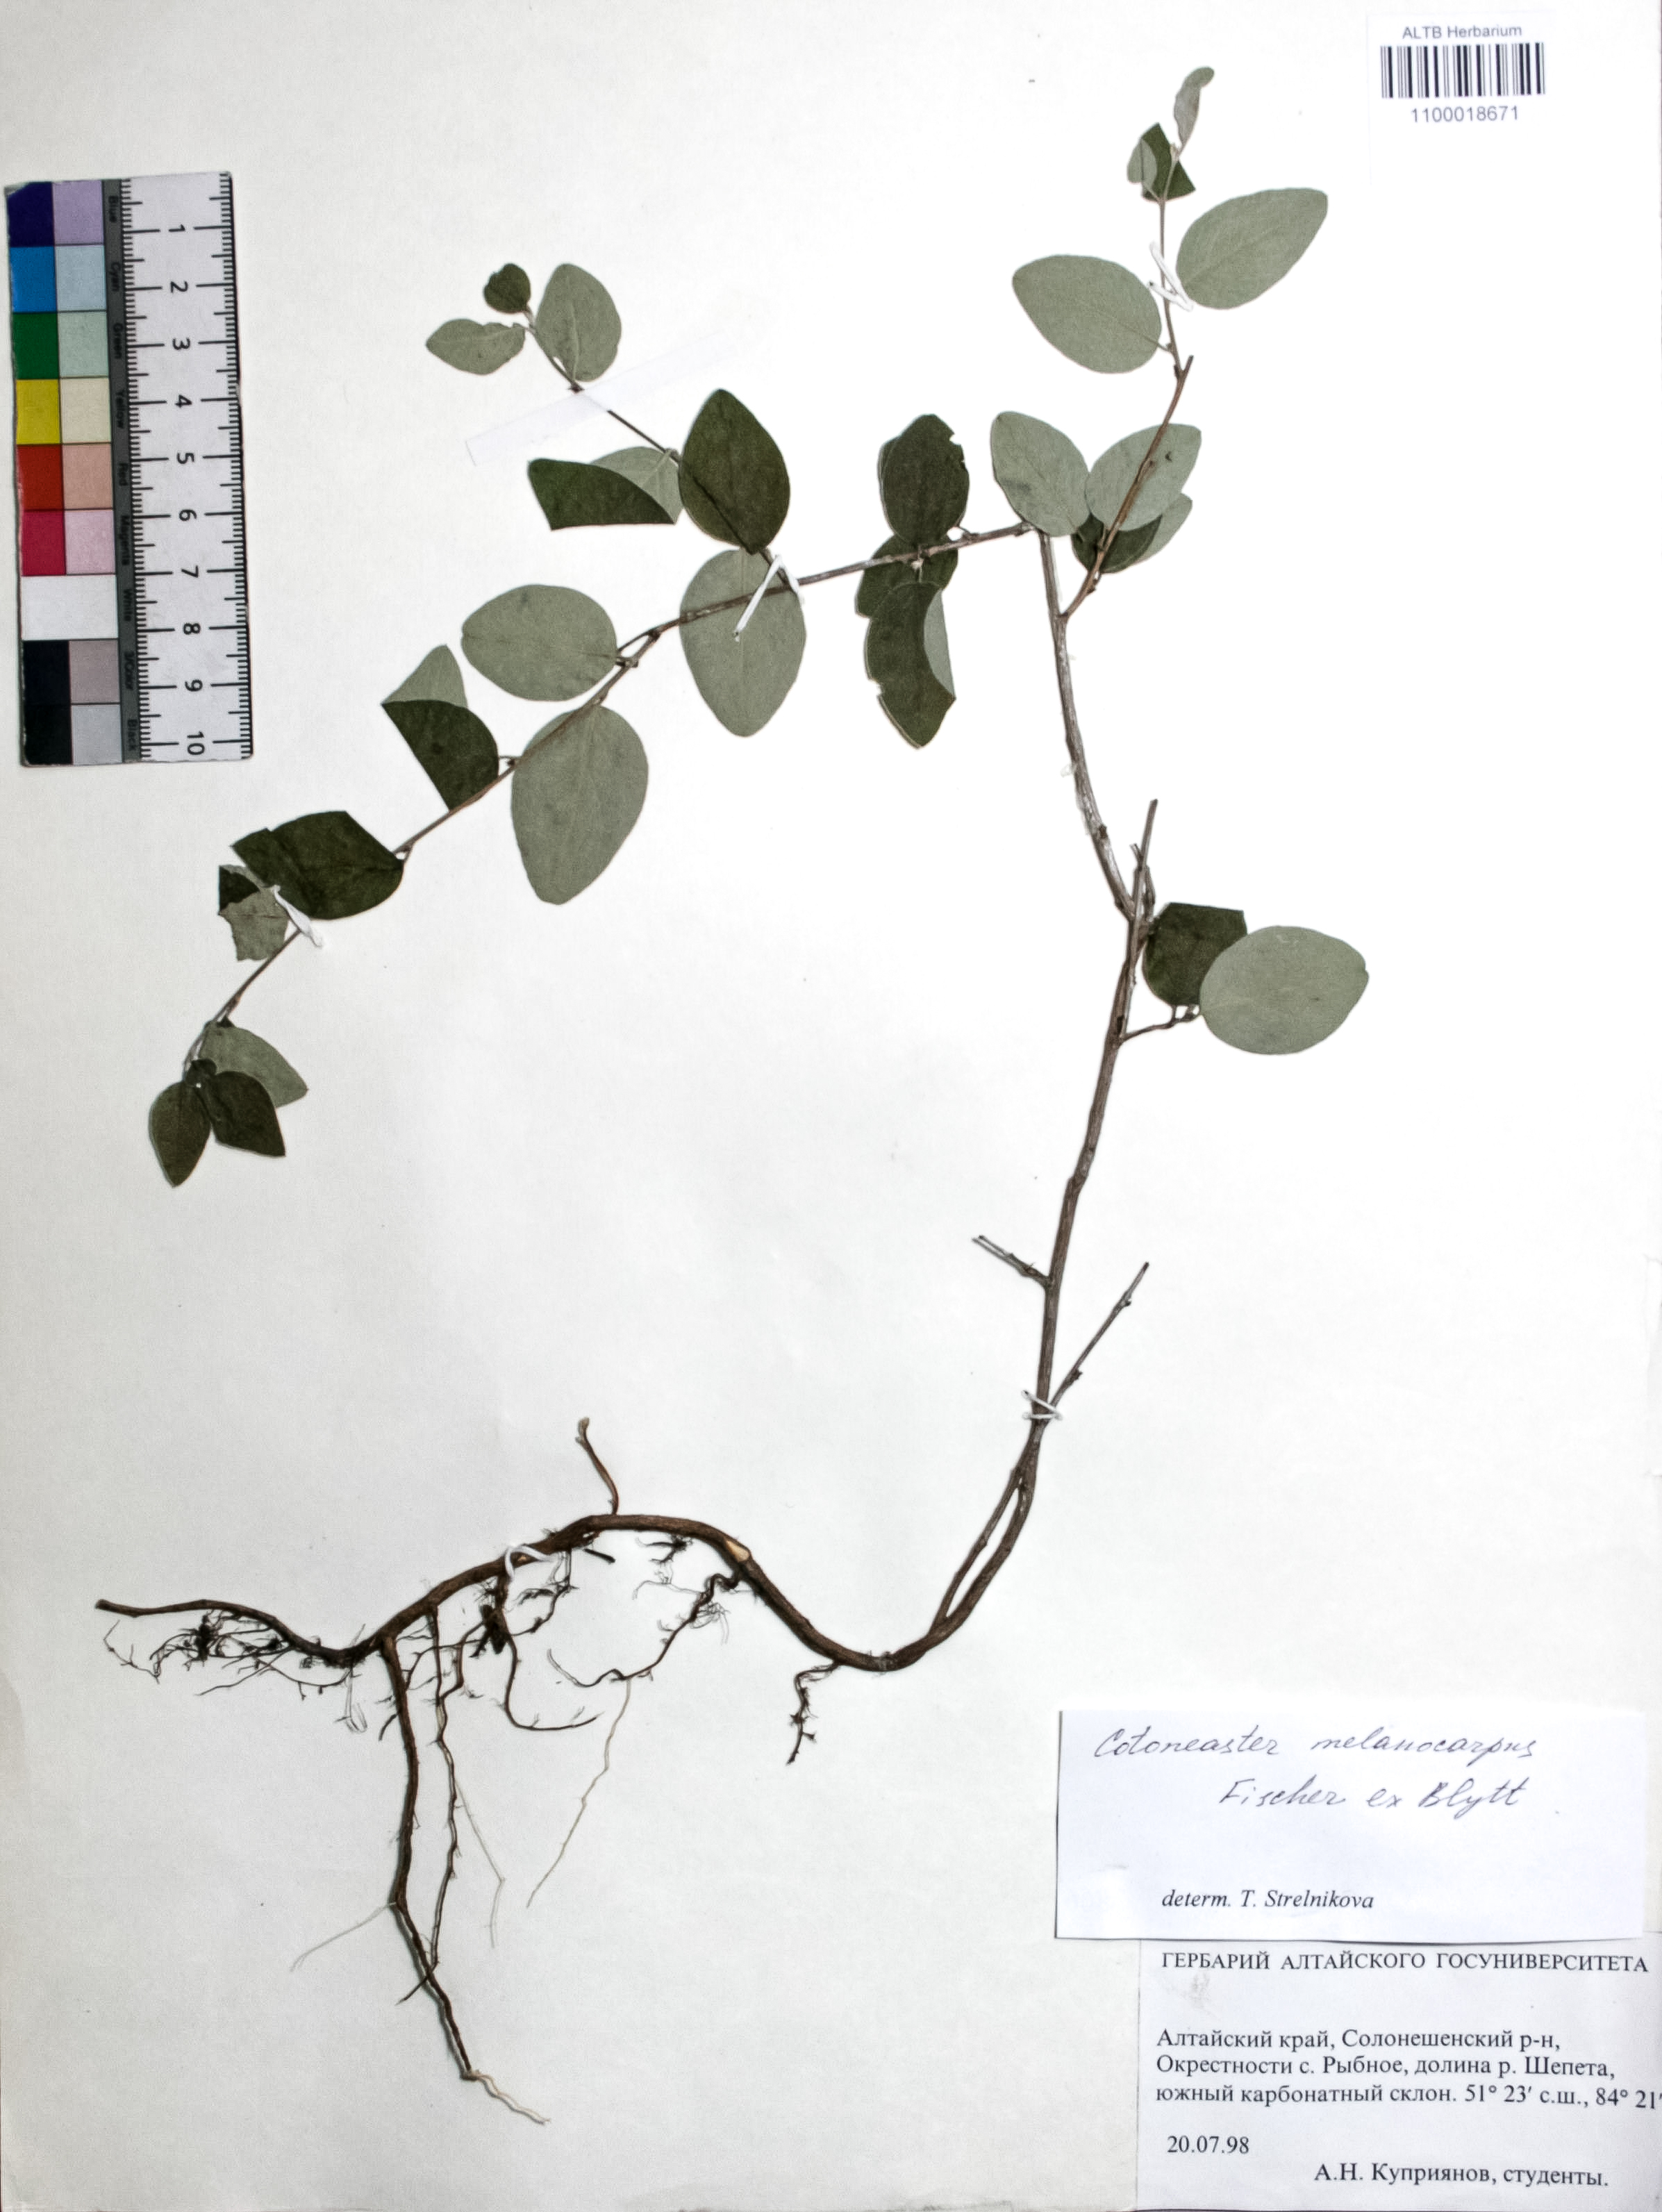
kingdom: Plantae
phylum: Tracheophyta
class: Magnoliopsida
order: Rosales
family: Rosaceae
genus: Cotoneaster
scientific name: Cotoneaster niger
